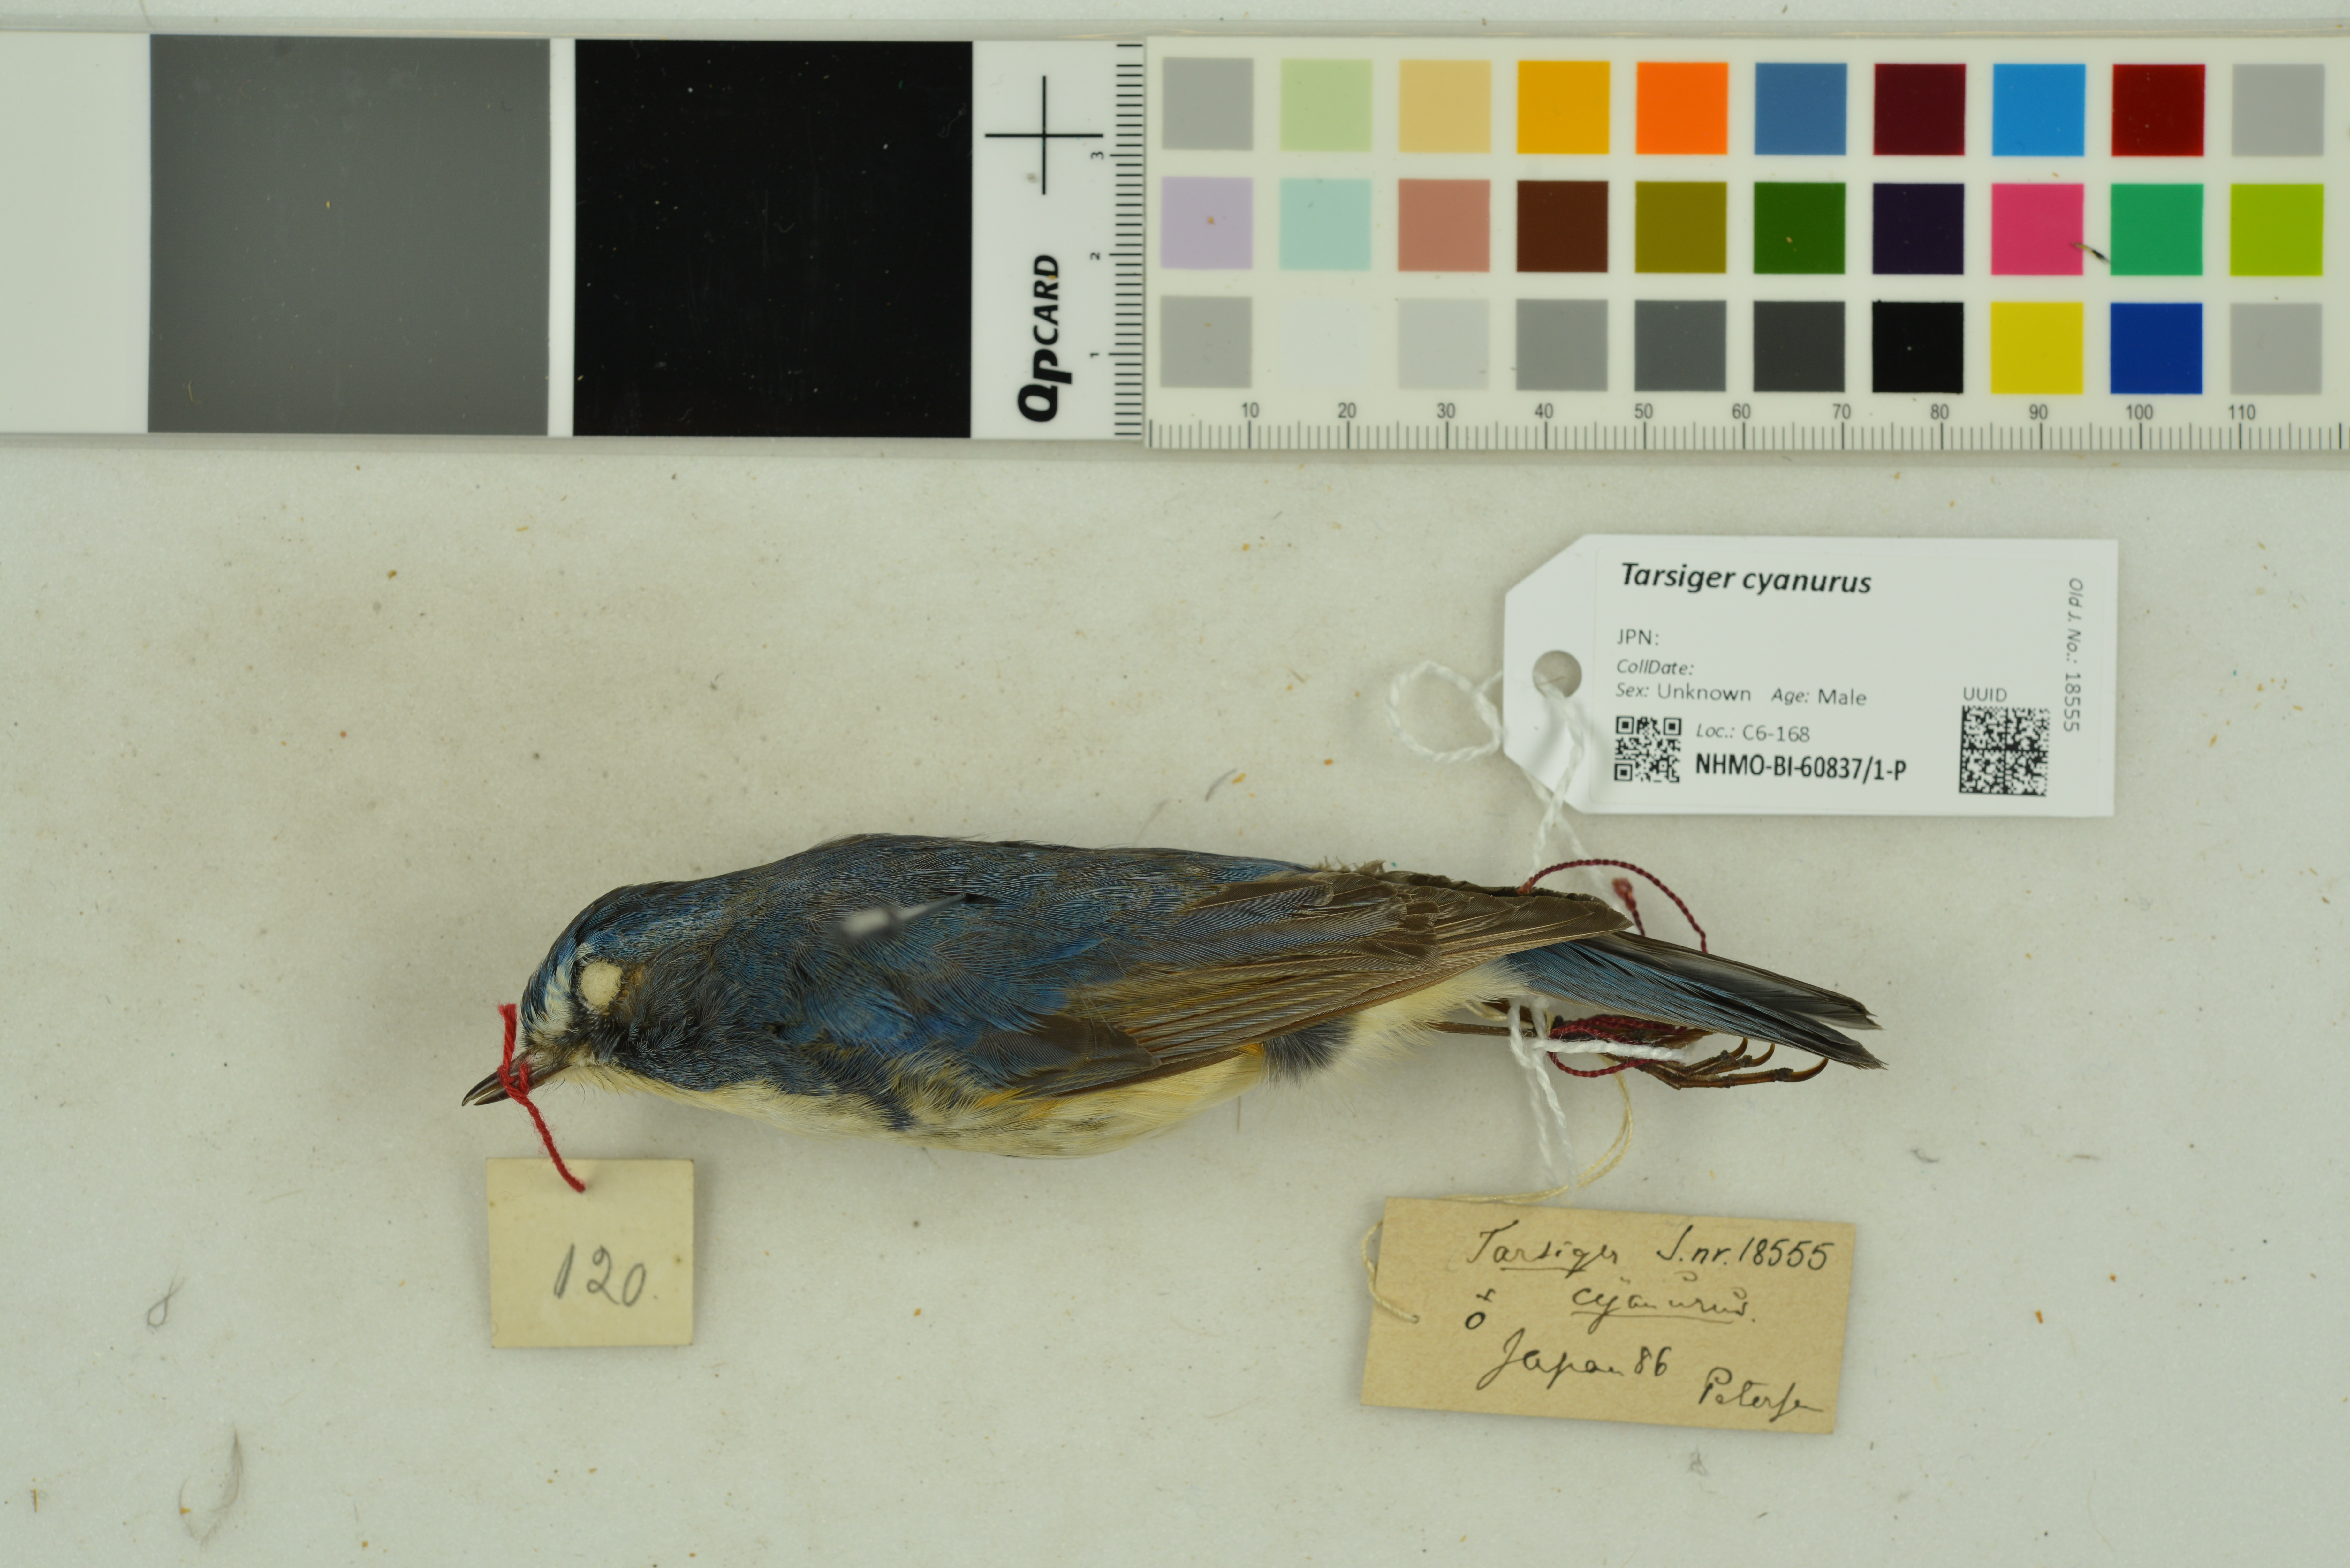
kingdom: Animalia
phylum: Chordata
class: Aves
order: Passeriformes
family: Muscicapidae
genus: Tarsiger
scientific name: Tarsiger cyanurus
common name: Red-flanked bluetail
